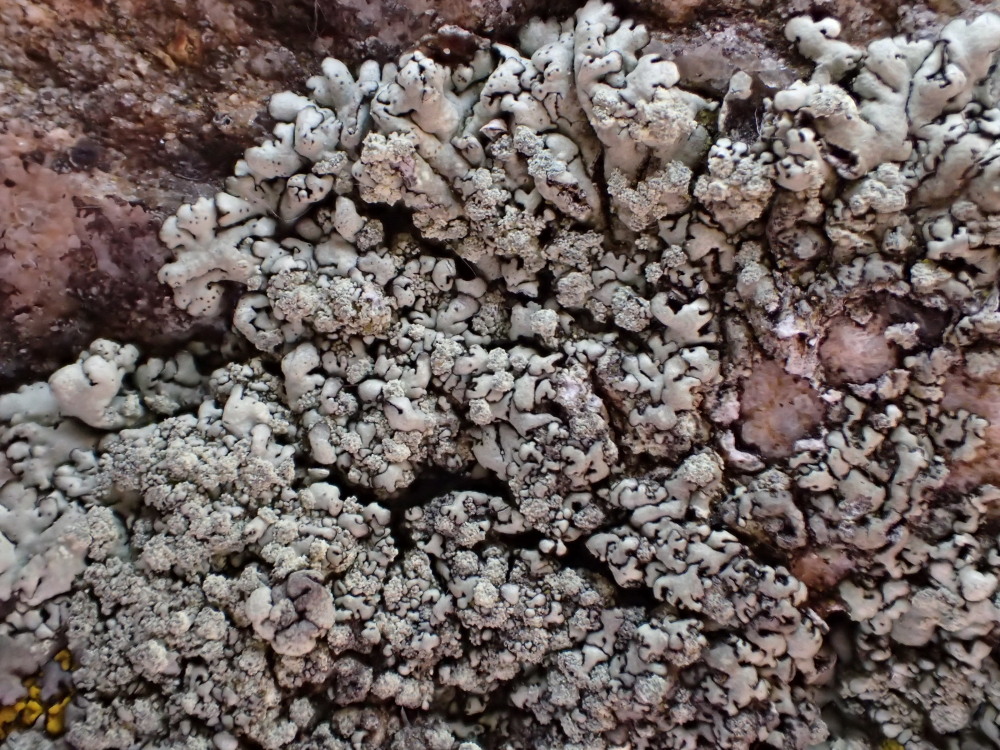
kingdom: Fungi
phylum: Ascomycota
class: Lecanoromycetes
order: Lecanorales
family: Parmeliaceae
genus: Xanthoparmelia
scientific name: Xanthoparmelia conspersa
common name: messing-skållav
